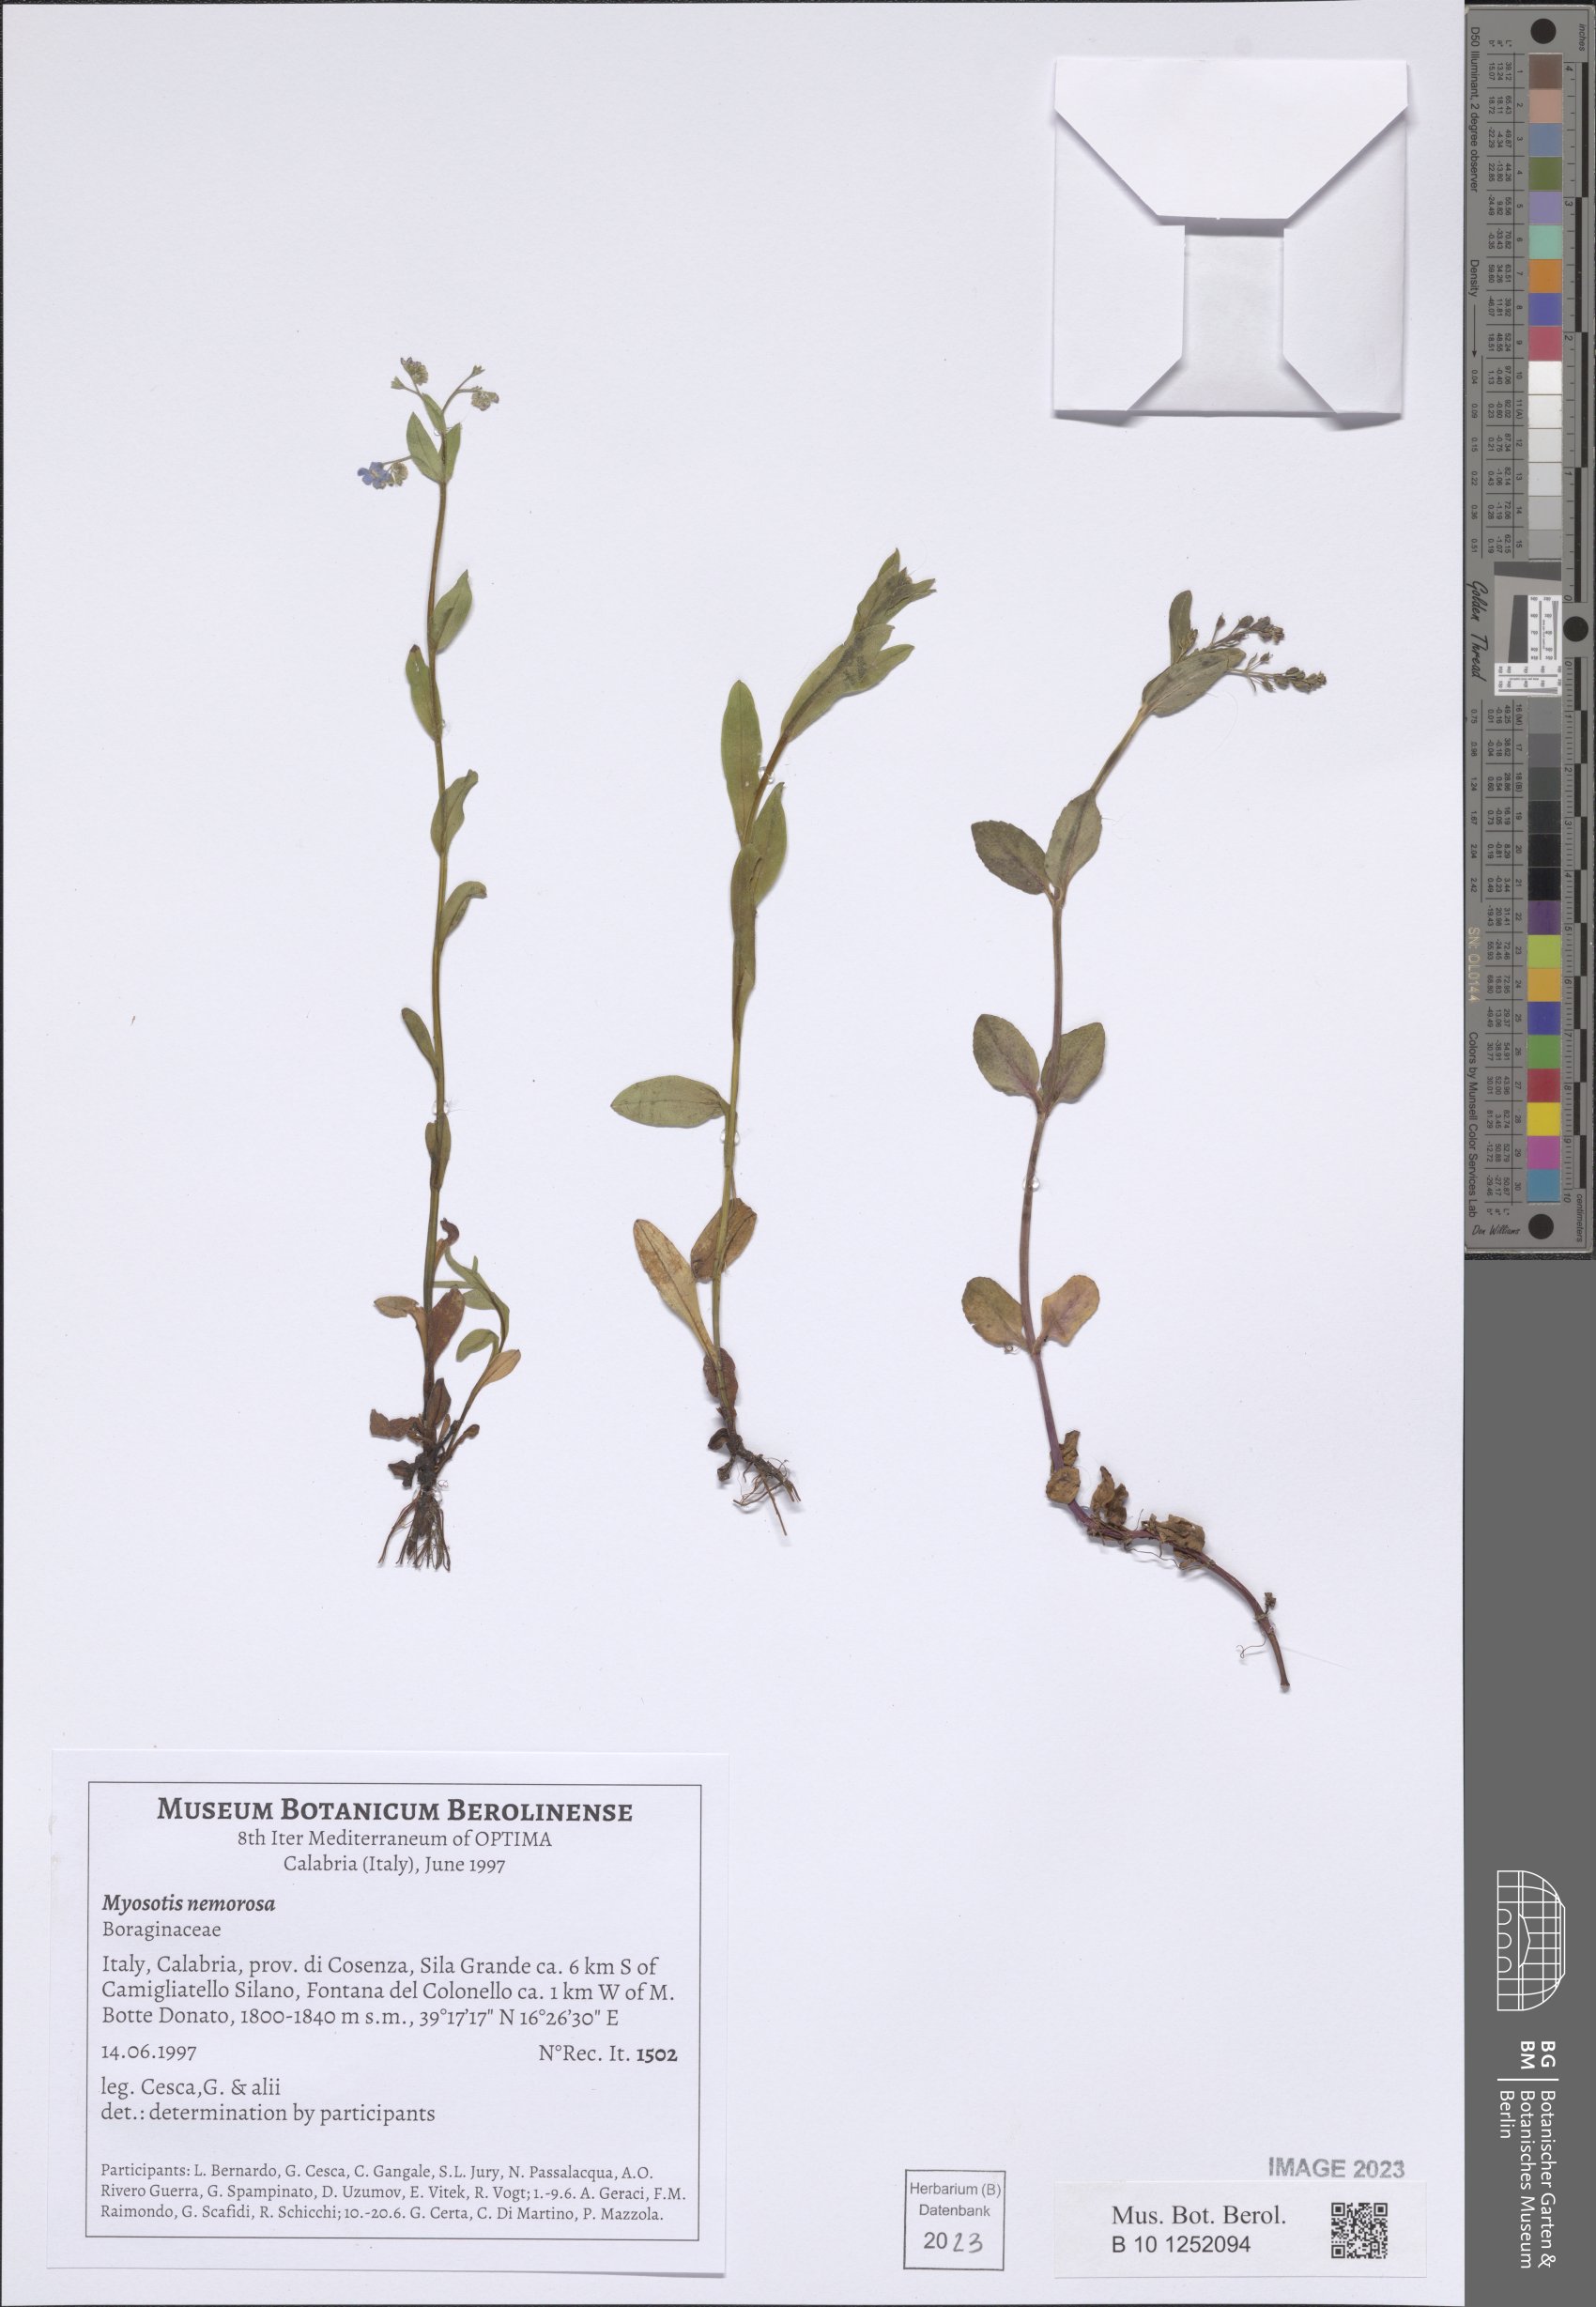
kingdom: Plantae
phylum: Tracheophyta
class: Magnoliopsida
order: Boraginales
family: Boraginaceae
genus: Myosotis
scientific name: Myosotis nemorosa
